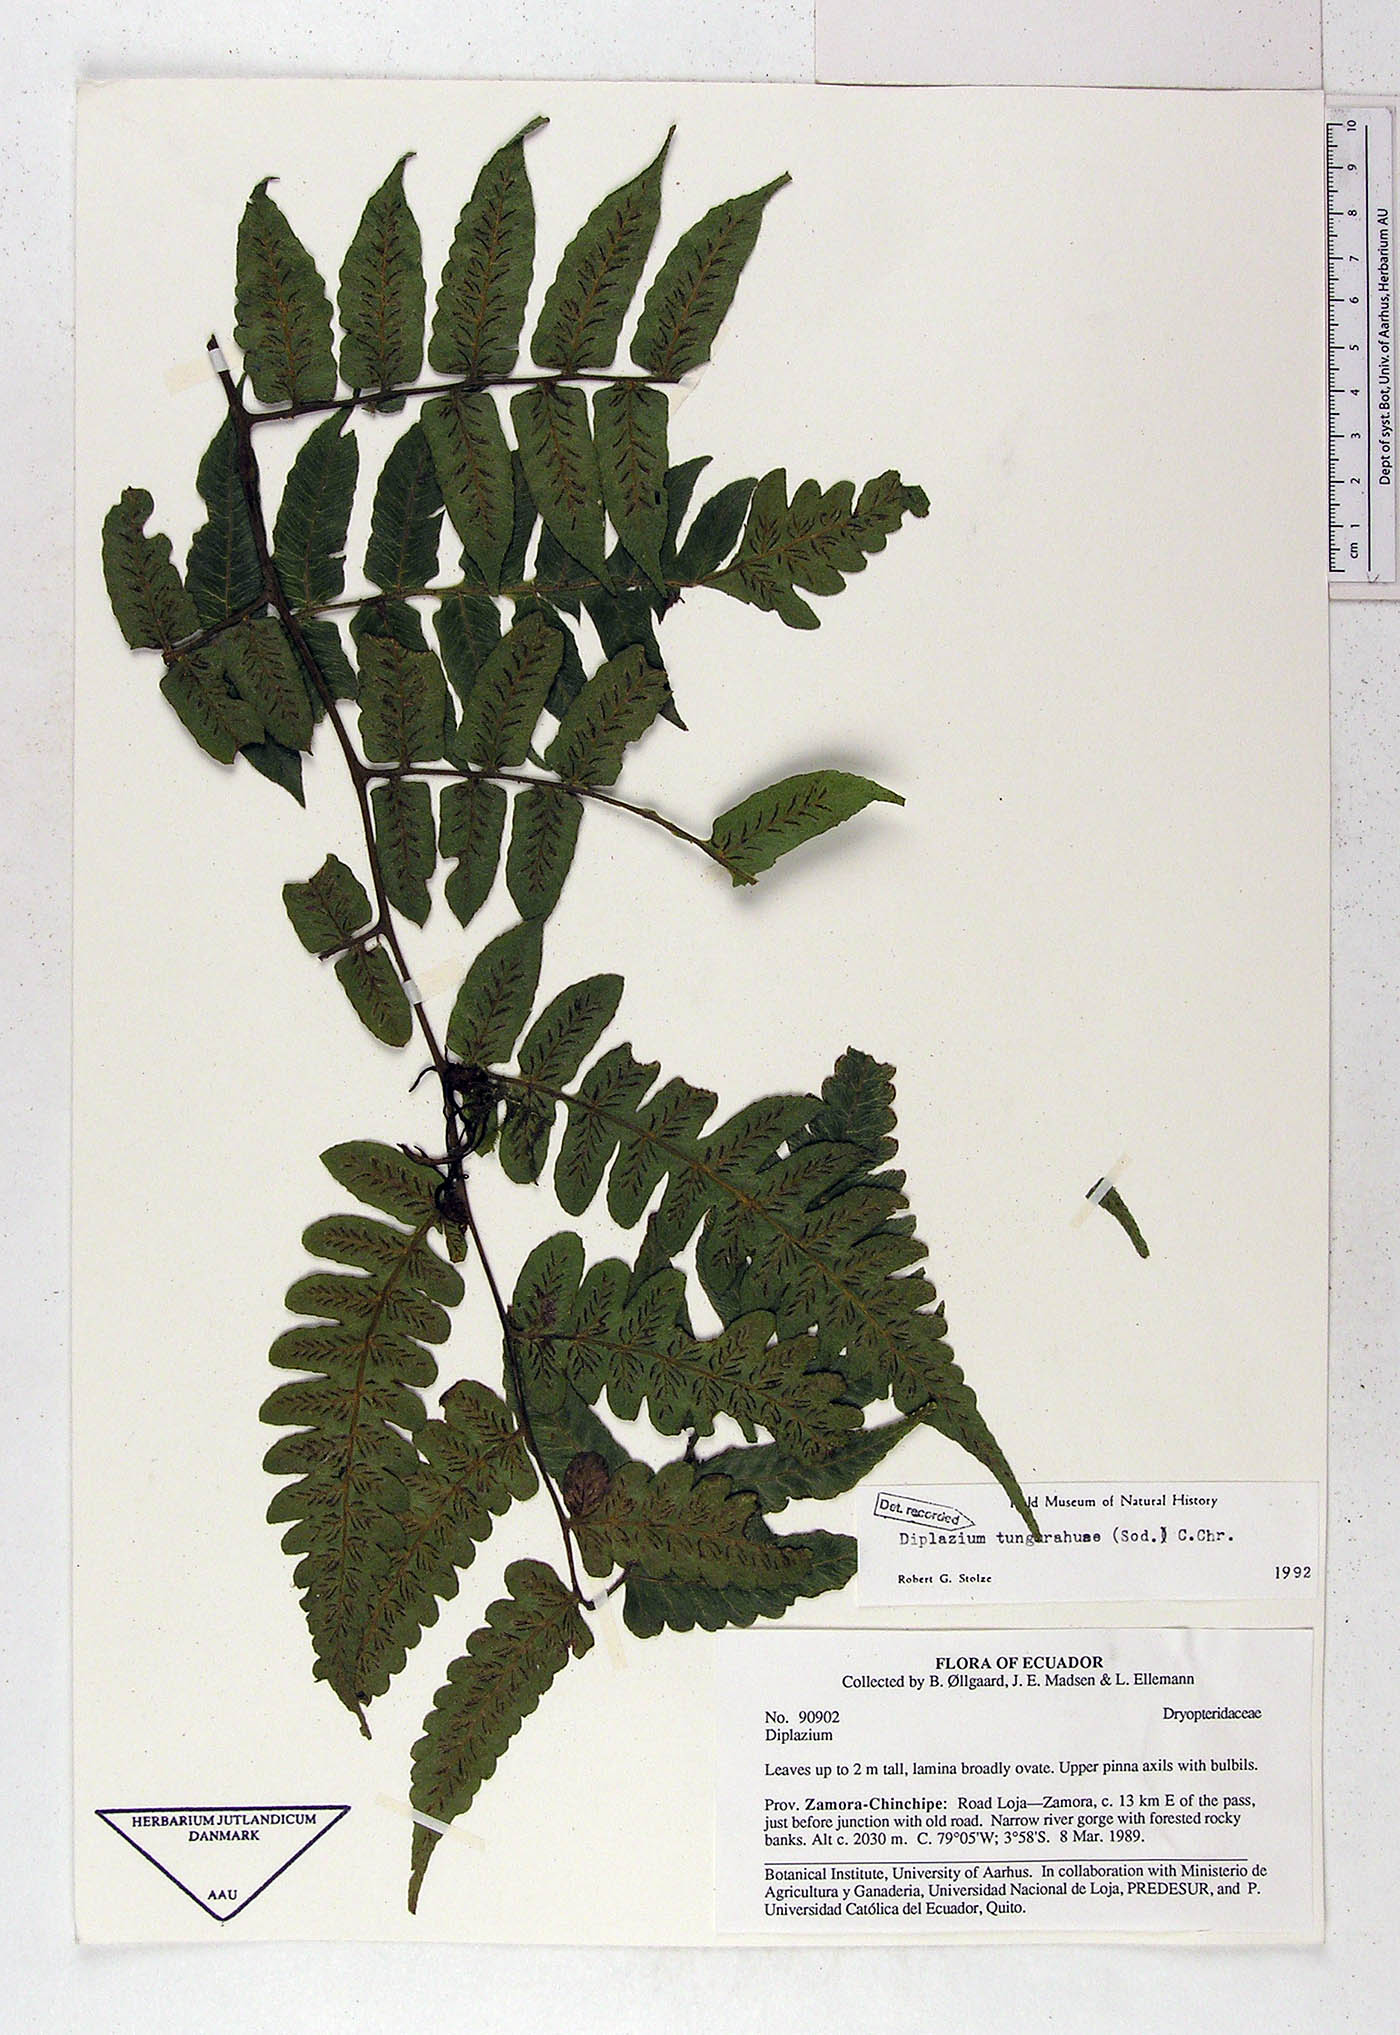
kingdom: Plantae
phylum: Tracheophyta
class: Polypodiopsida
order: Polypodiales
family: Athyriaceae
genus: Diplazium
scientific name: Diplazium tungurahuae
